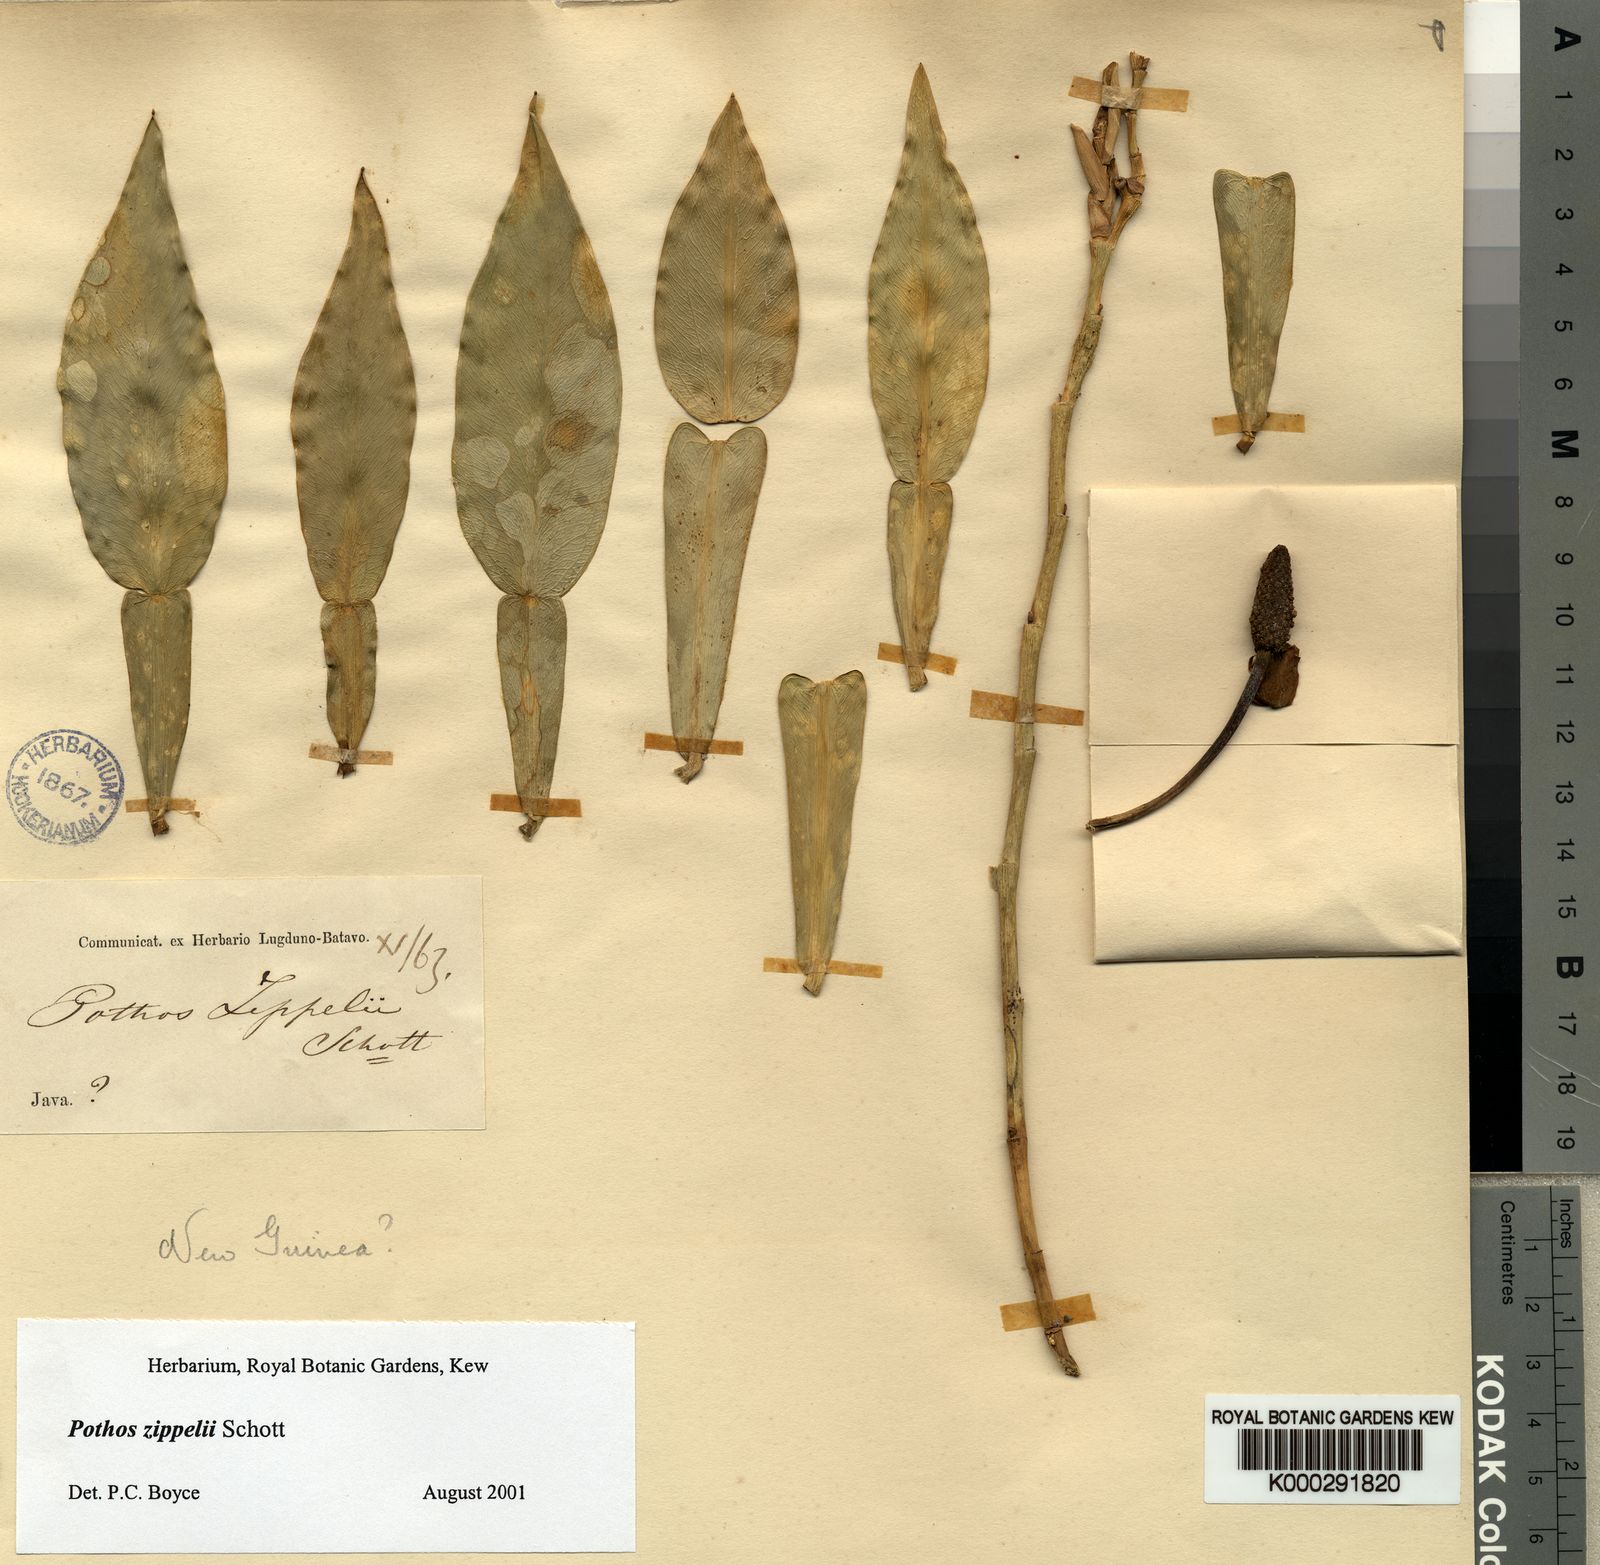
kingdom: Plantae
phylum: Tracheophyta
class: Liliopsida
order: Alismatales
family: Araceae
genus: Pothos
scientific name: Pothos zippelii
